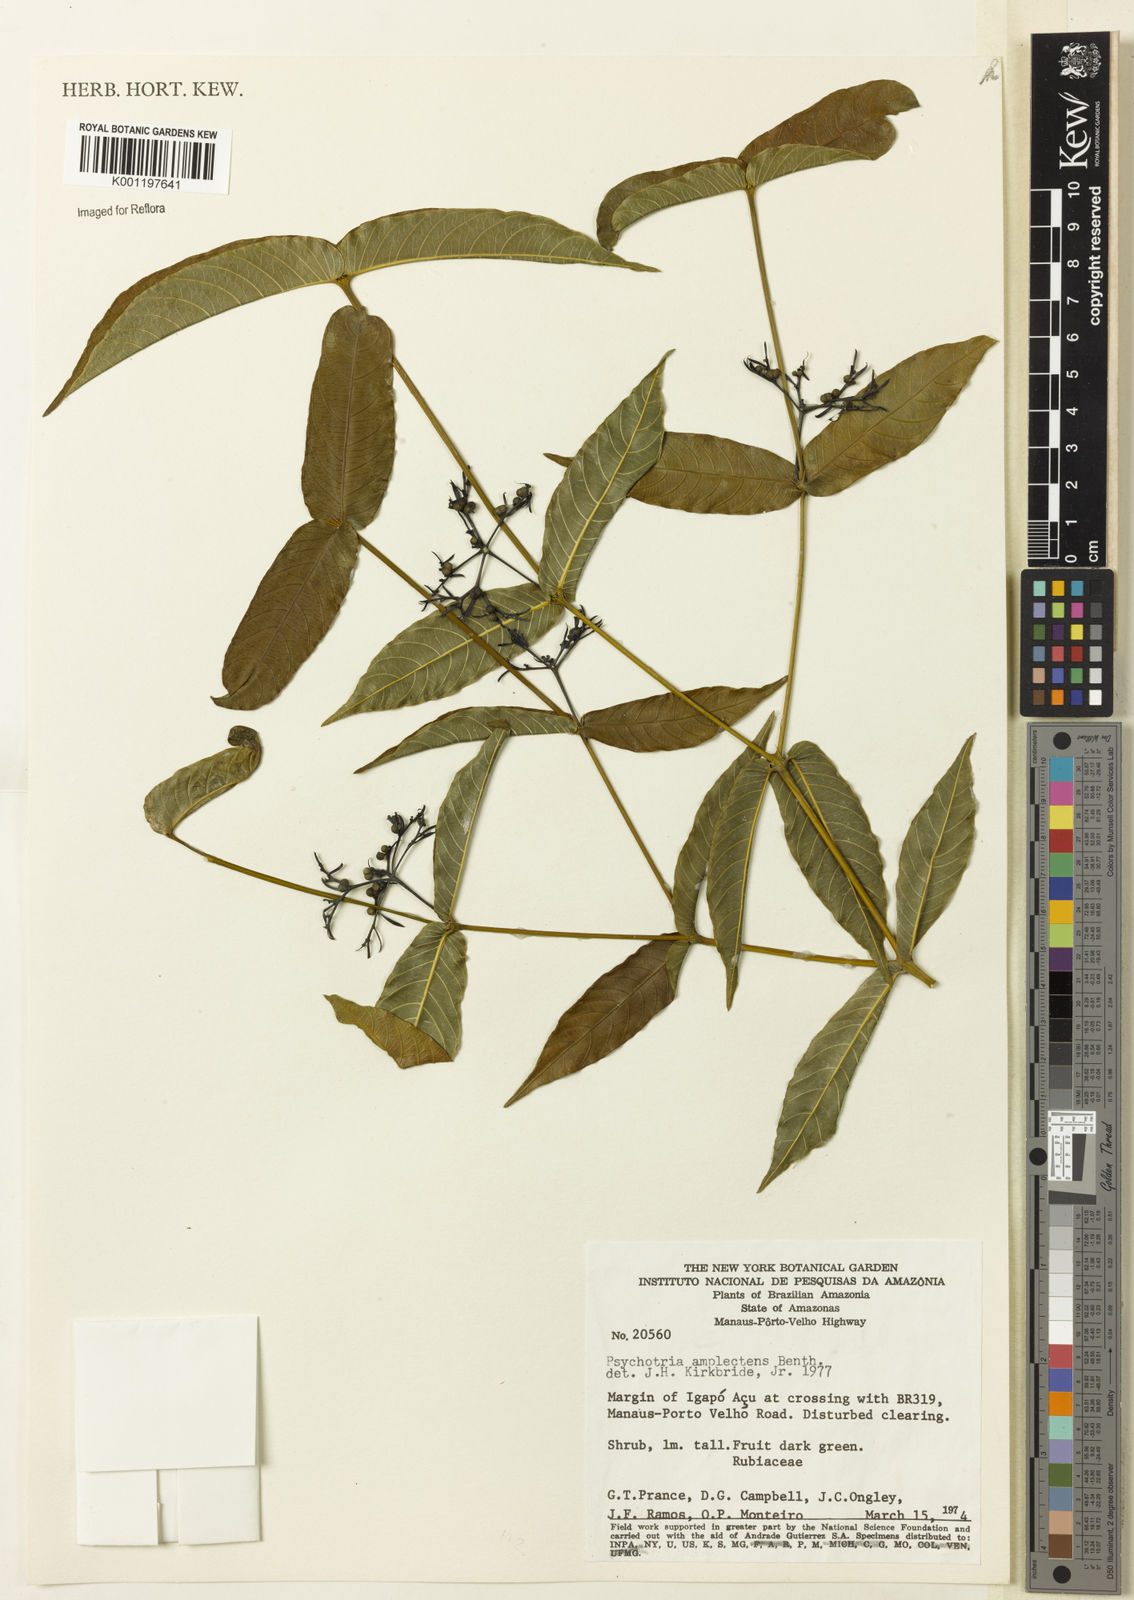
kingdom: Plantae
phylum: Tracheophyta
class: Magnoliopsida
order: Gentianales
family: Rubiaceae
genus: Psychotria
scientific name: Psychotria
